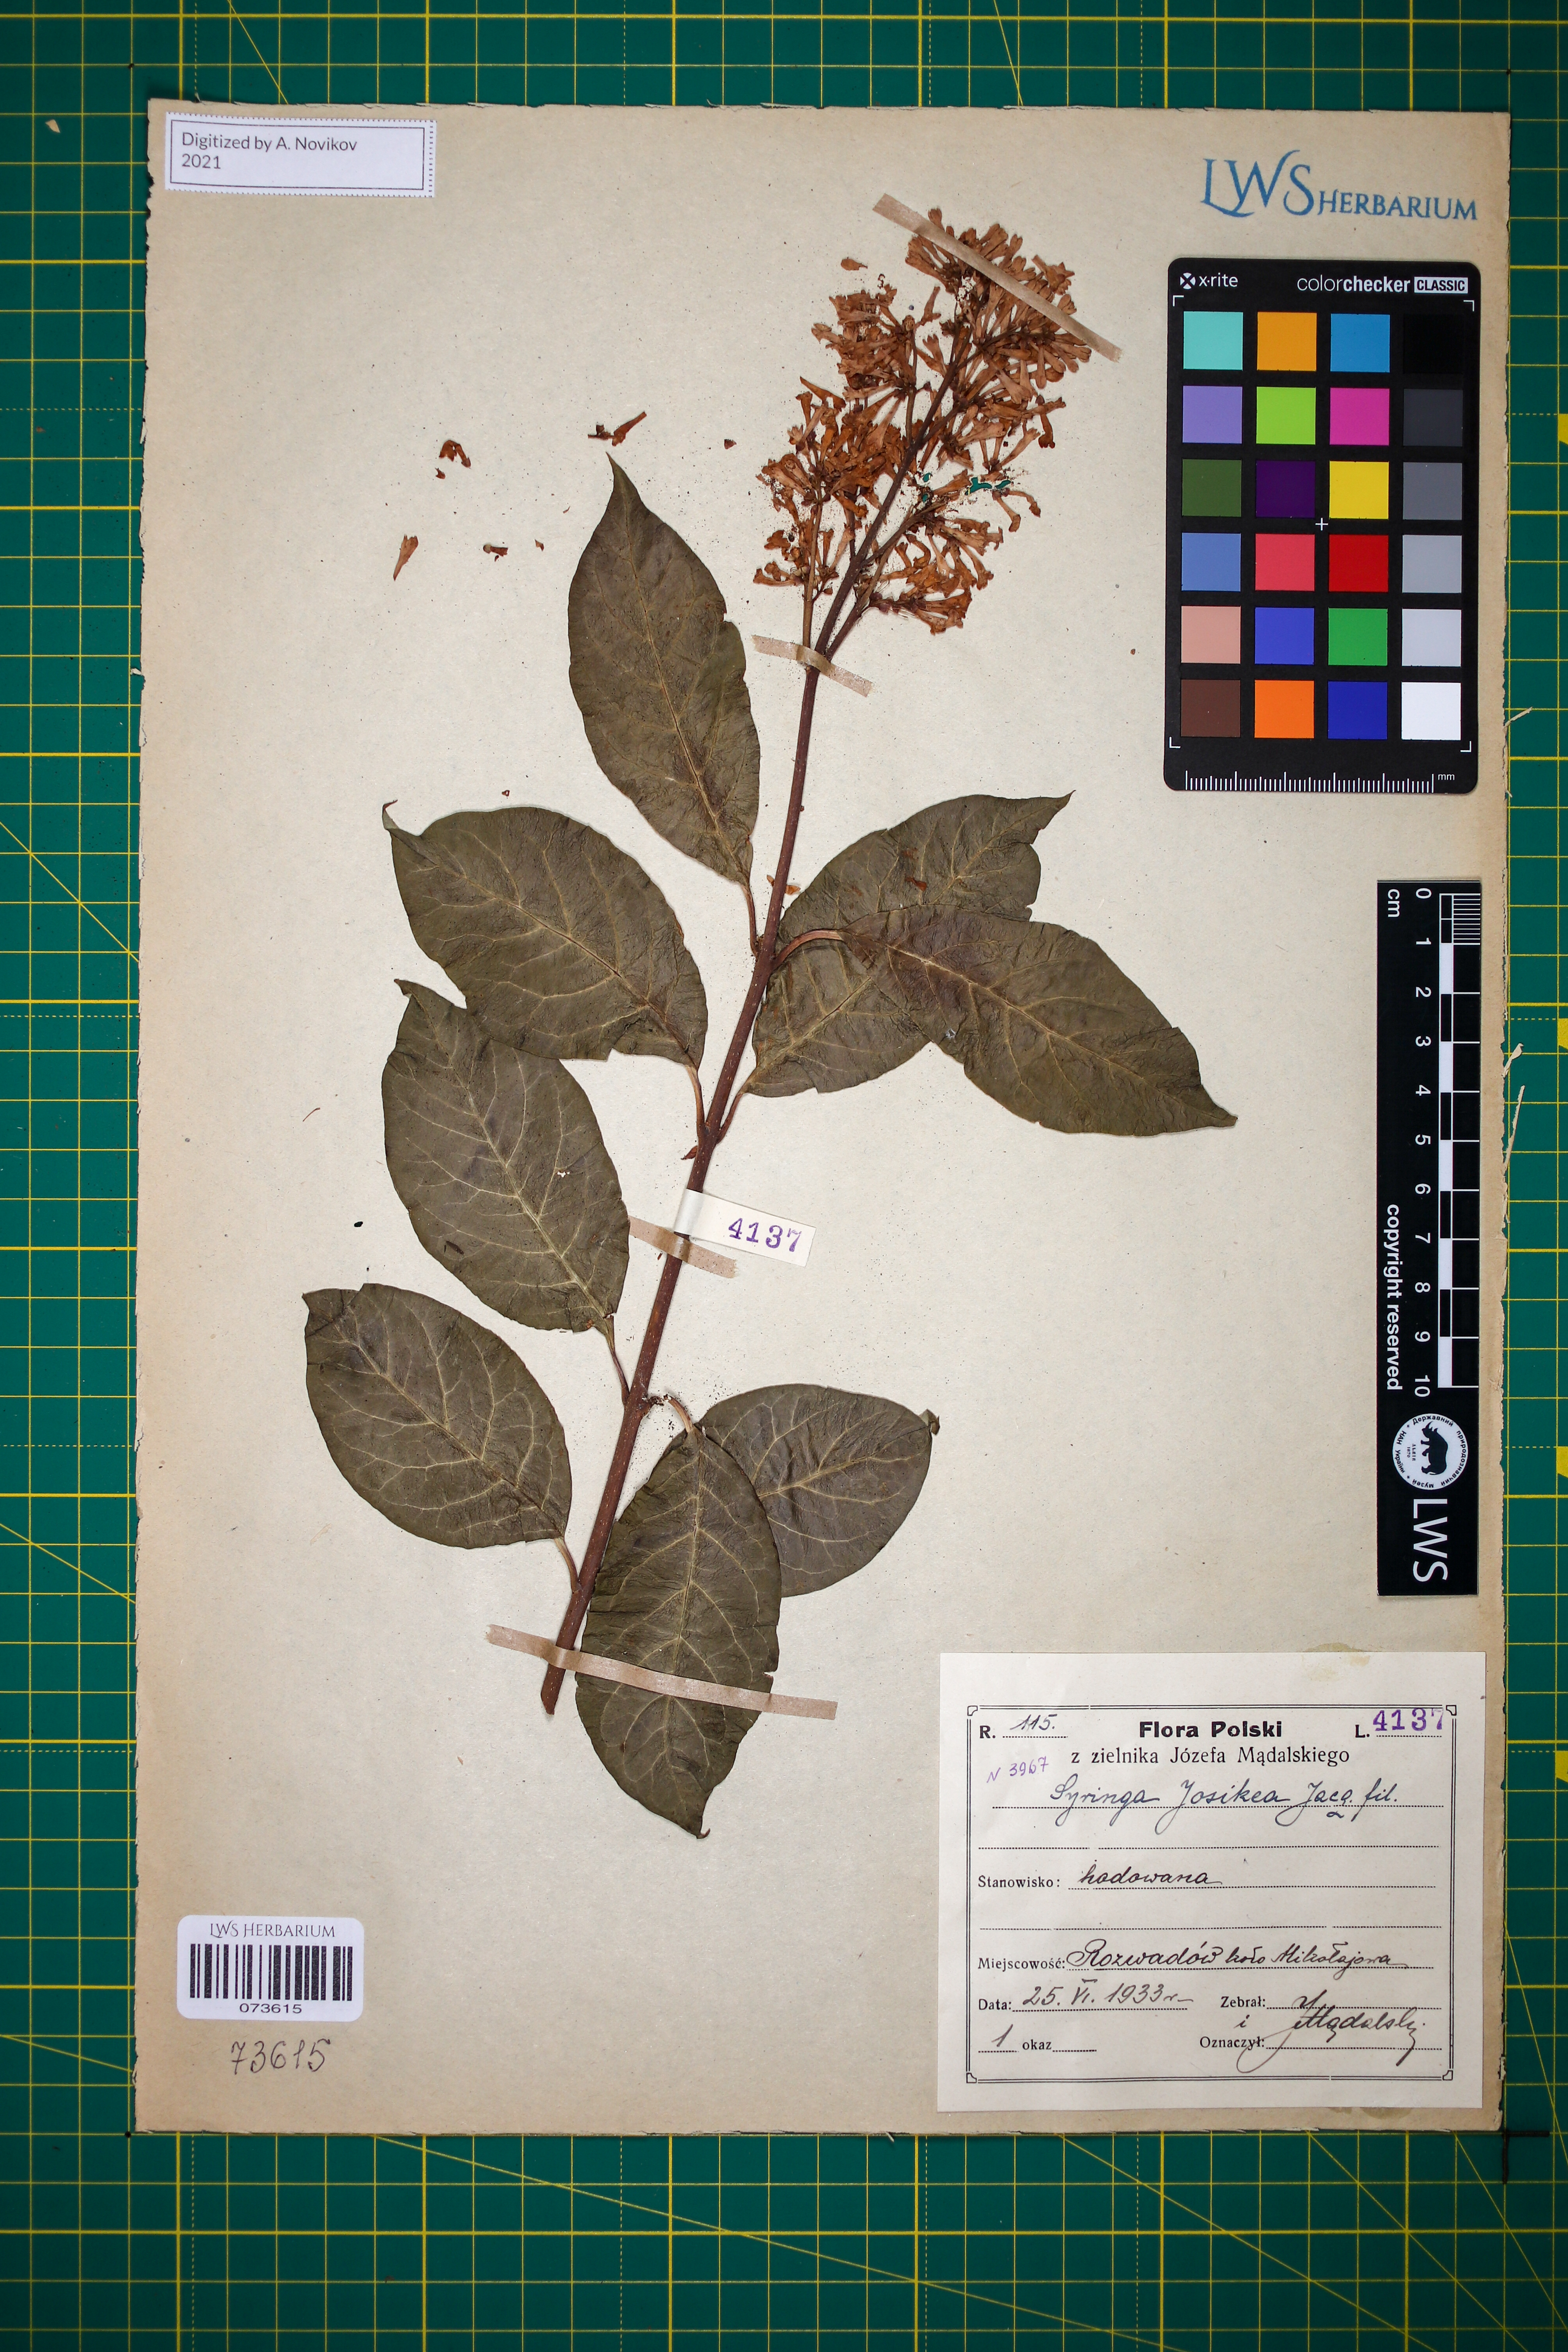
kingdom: Plantae
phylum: Tracheophyta
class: Magnoliopsida
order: Lamiales
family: Oleaceae
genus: Syringa
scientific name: Syringa josikaea
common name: Hungarian lilac
